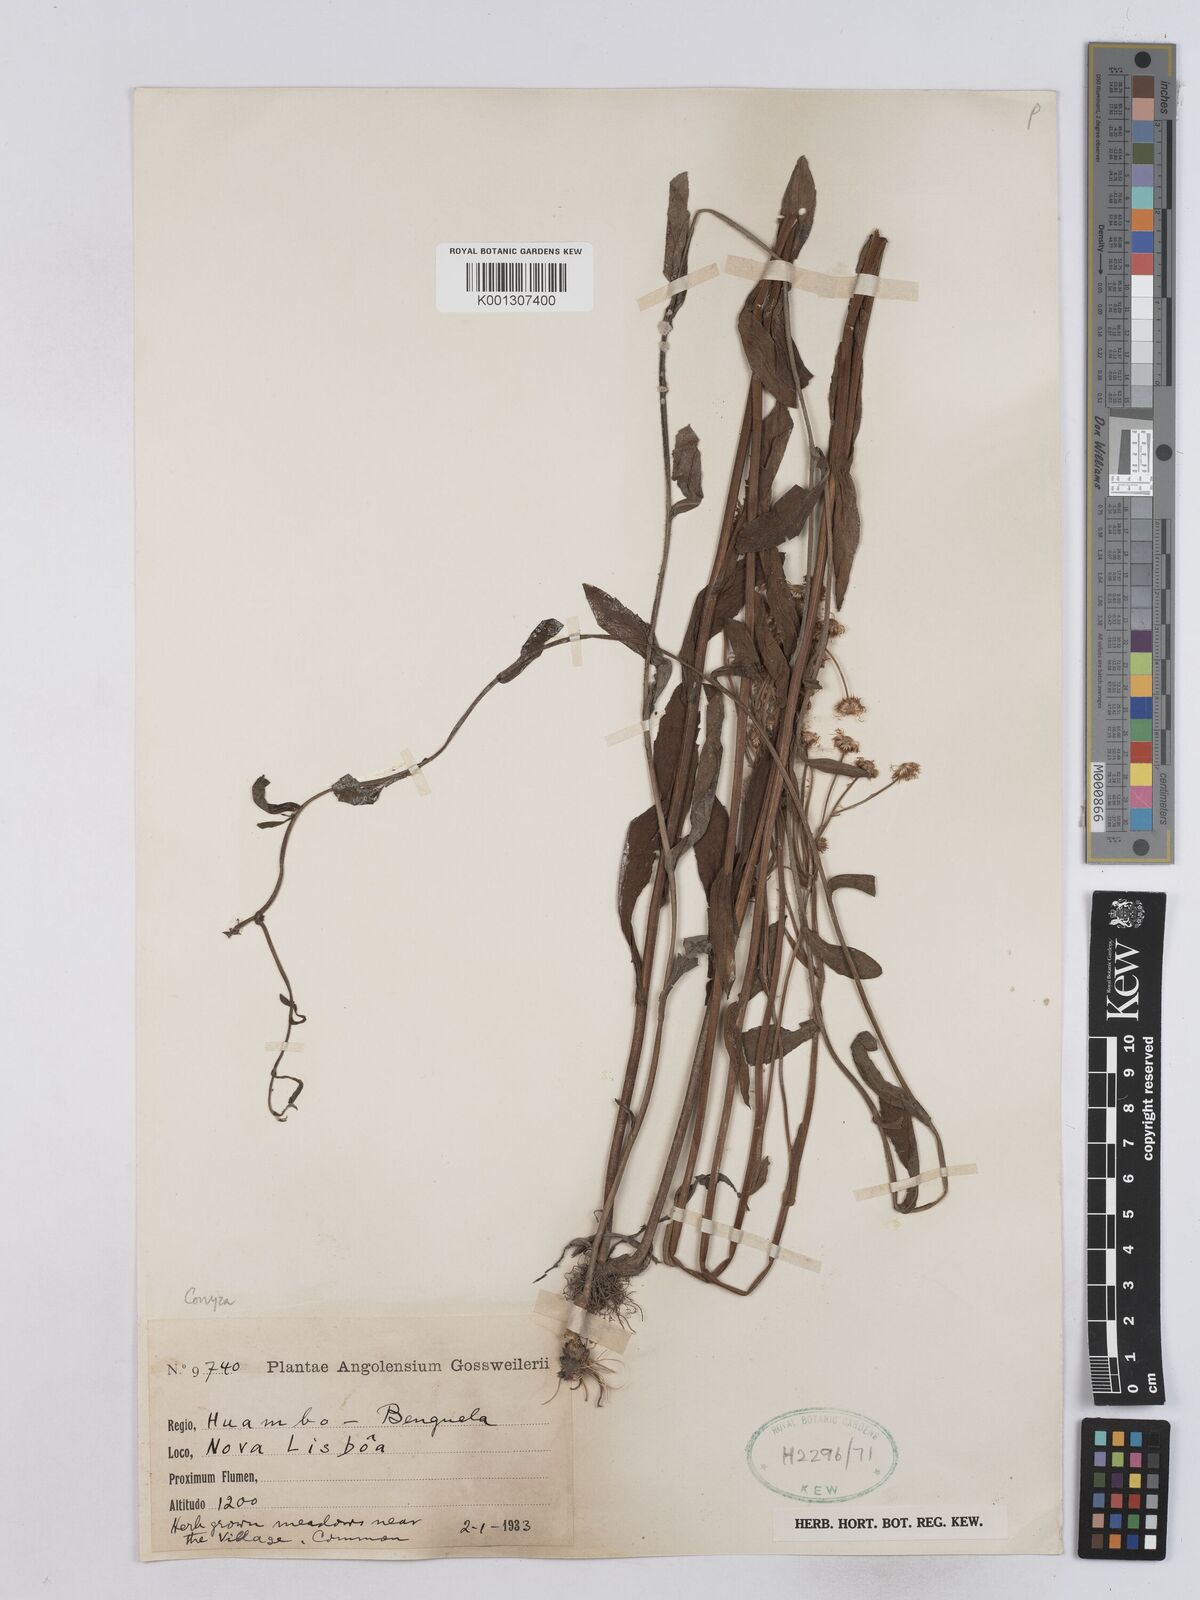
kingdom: Plantae
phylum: Tracheophyta
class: Magnoliopsida
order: Asterales
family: Asteraceae
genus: Conyza
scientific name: Conyza
